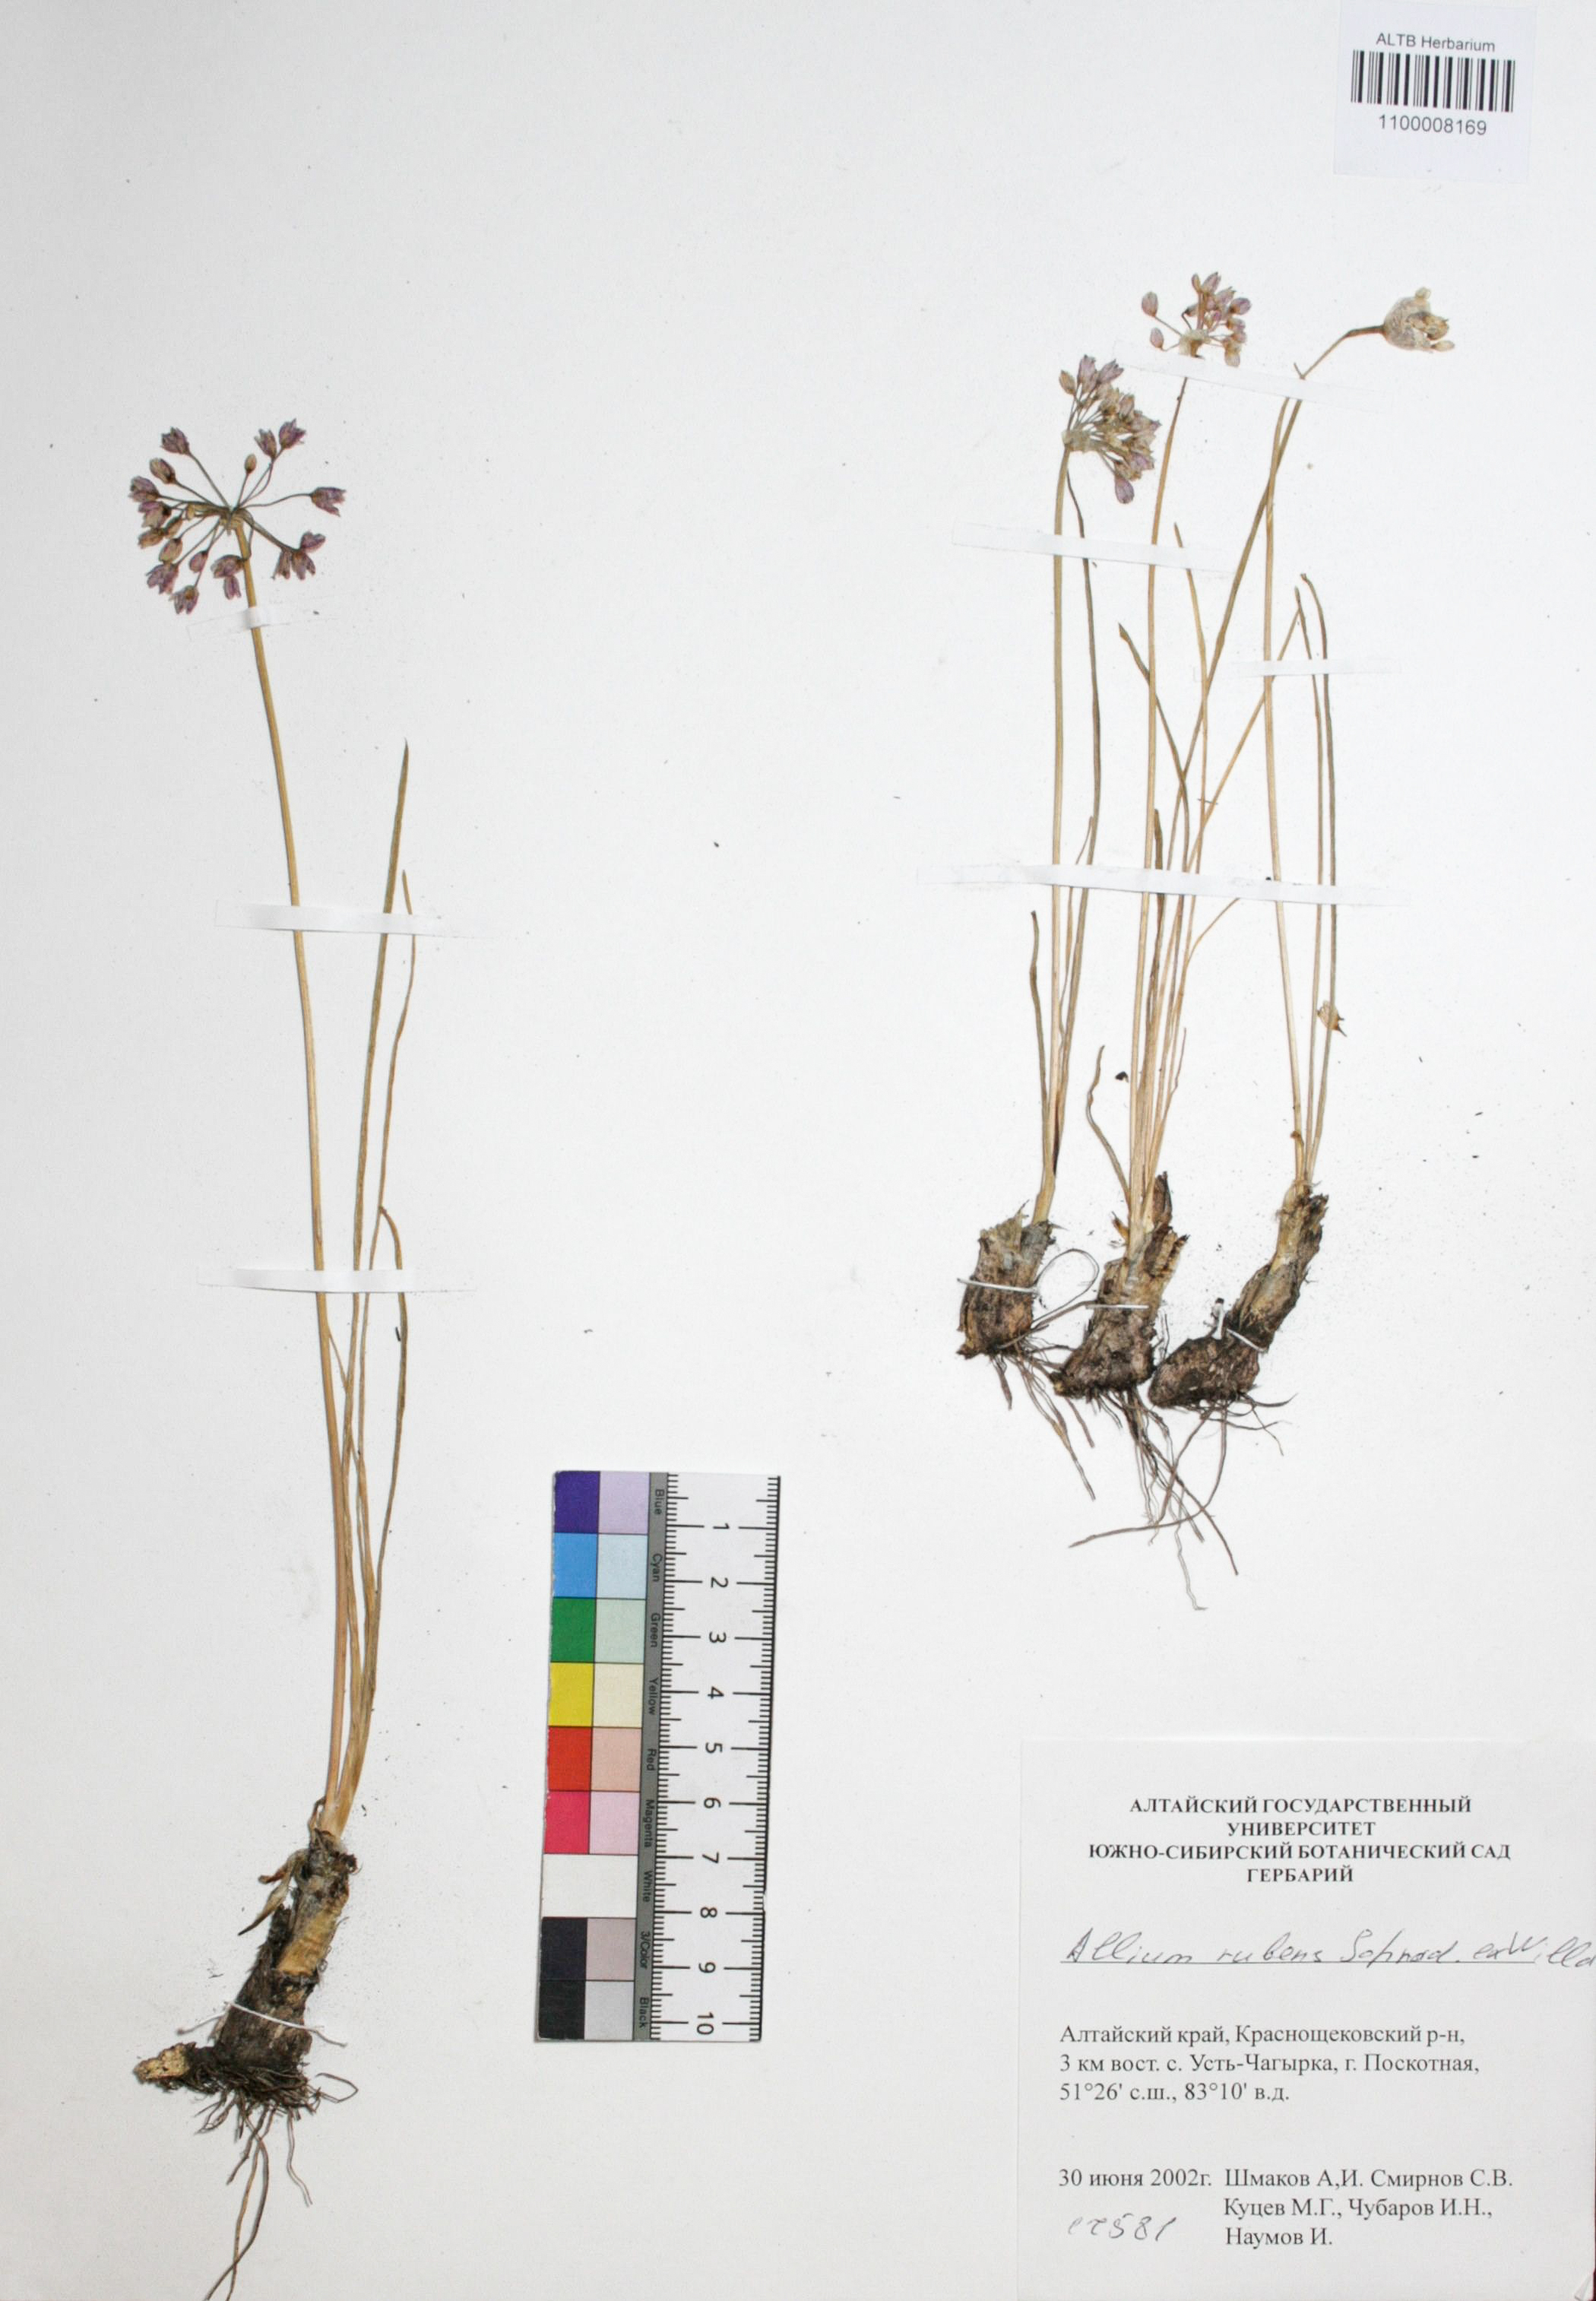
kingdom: Plantae
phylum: Tracheophyta
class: Liliopsida
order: Asparagales
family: Amaryllidaceae
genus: Allium
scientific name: Allium rubens
